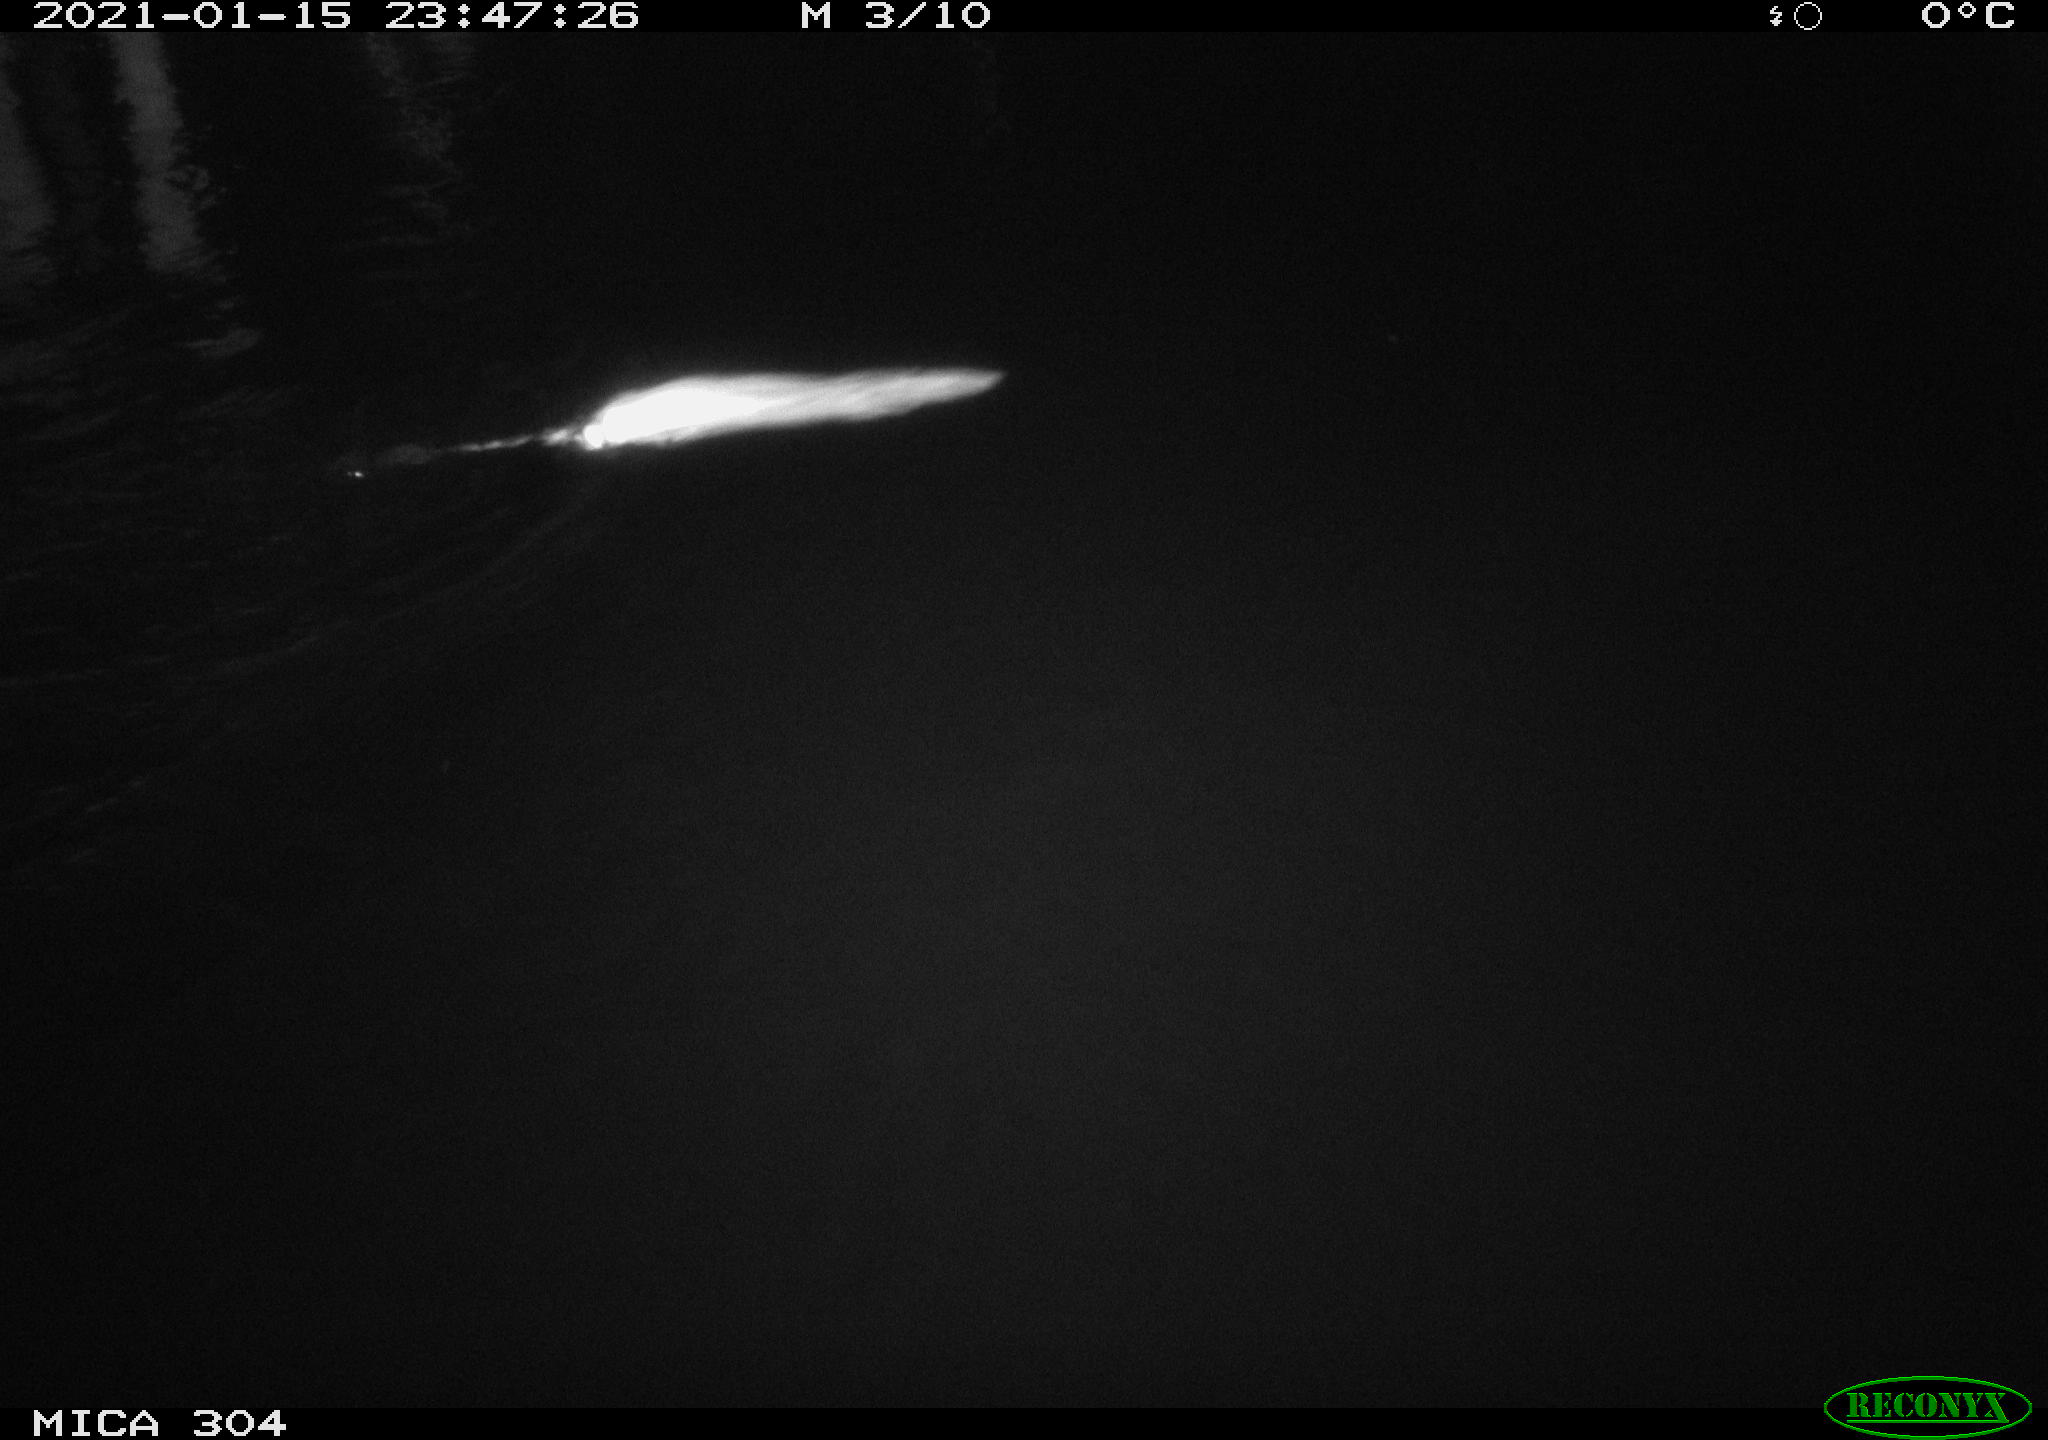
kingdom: Animalia
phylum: Chordata
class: Mammalia
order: Rodentia
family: Muridae
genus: Rattus
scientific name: Rattus norvegicus
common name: Brown rat
